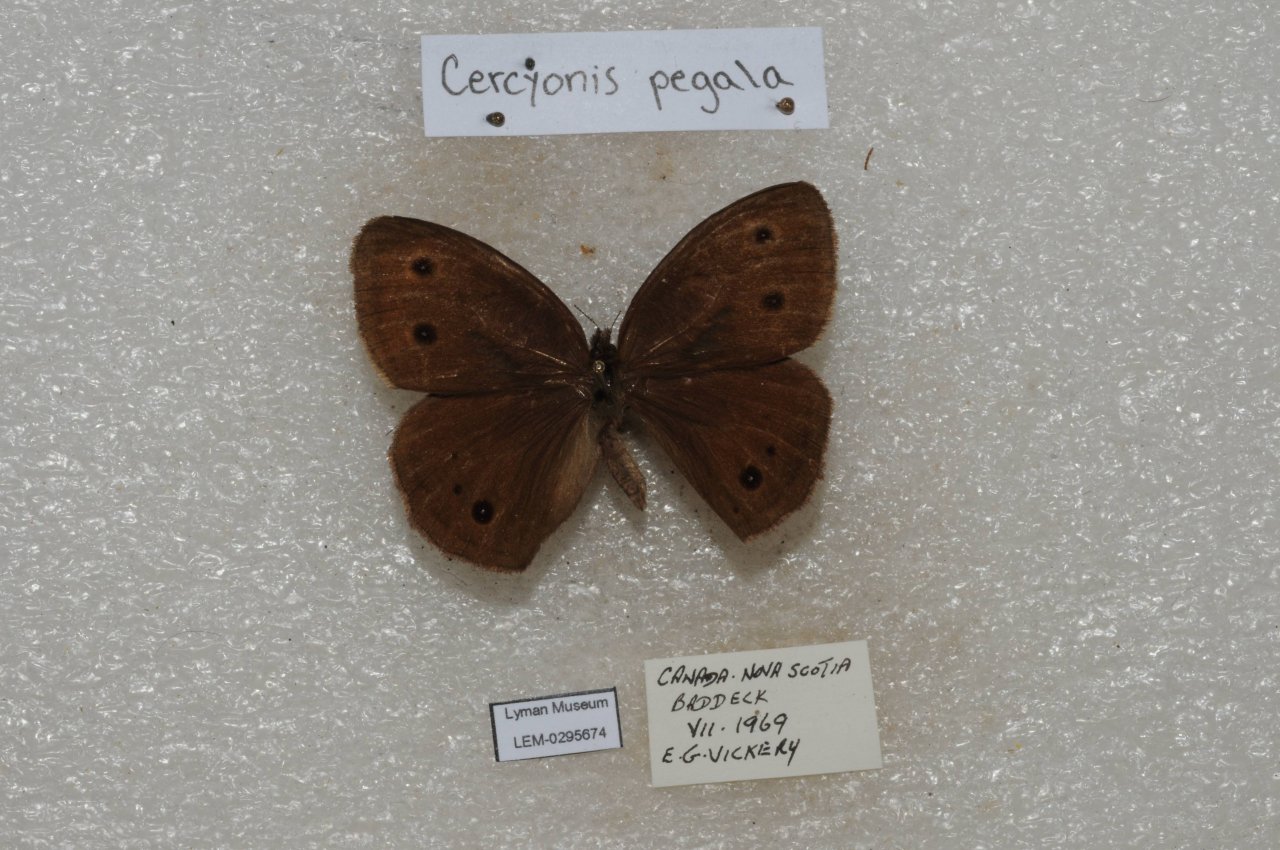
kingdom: Animalia
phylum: Arthropoda
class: Insecta
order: Lepidoptera
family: Nymphalidae
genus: Cercyonis
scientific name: Cercyonis pegala
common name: Common Wood-Nymph
